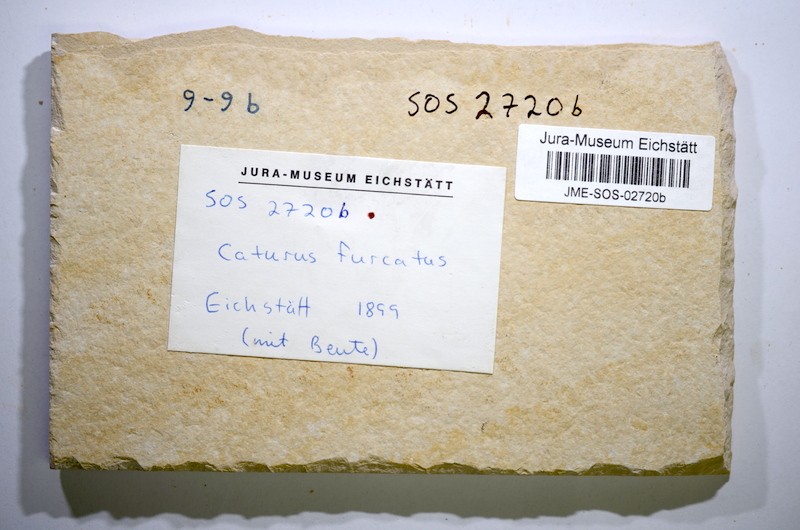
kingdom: Animalia
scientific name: Animalia
